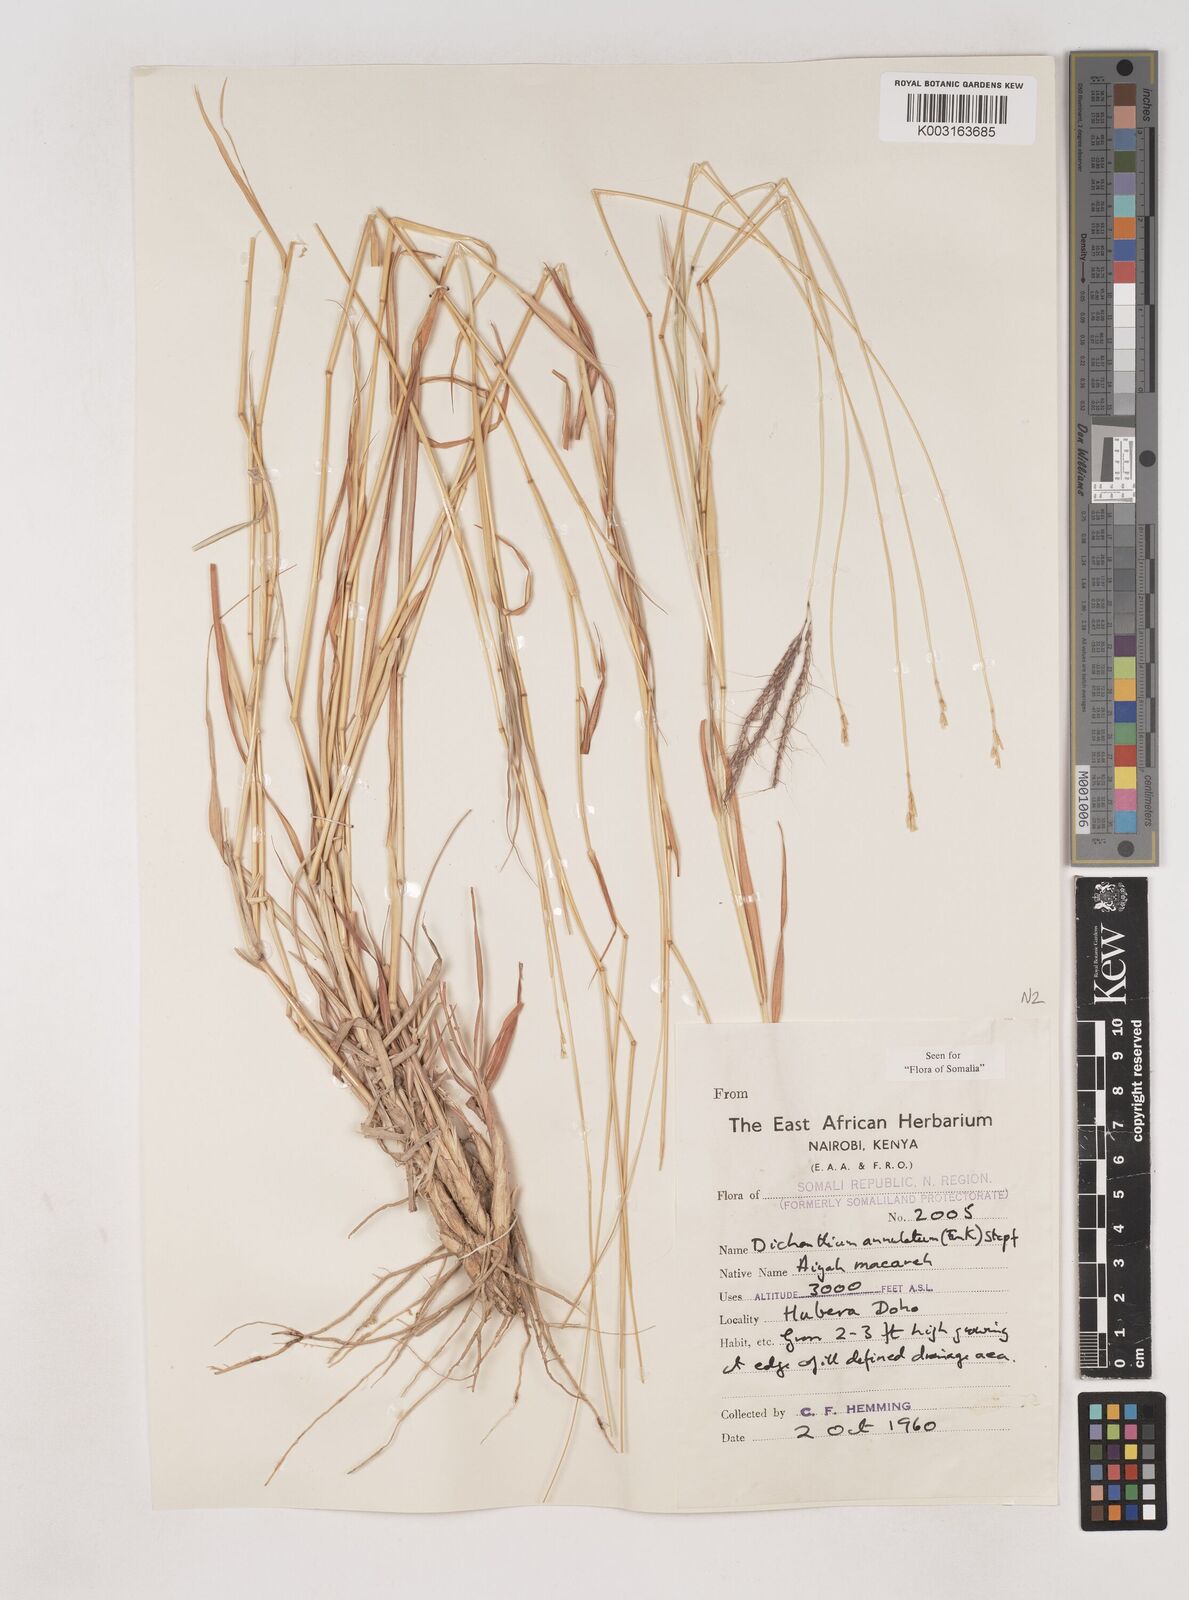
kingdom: Plantae
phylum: Tracheophyta
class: Liliopsida
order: Poales
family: Poaceae
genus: Dichanthium
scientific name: Dichanthium annulatum
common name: Kleberg's bluestem
